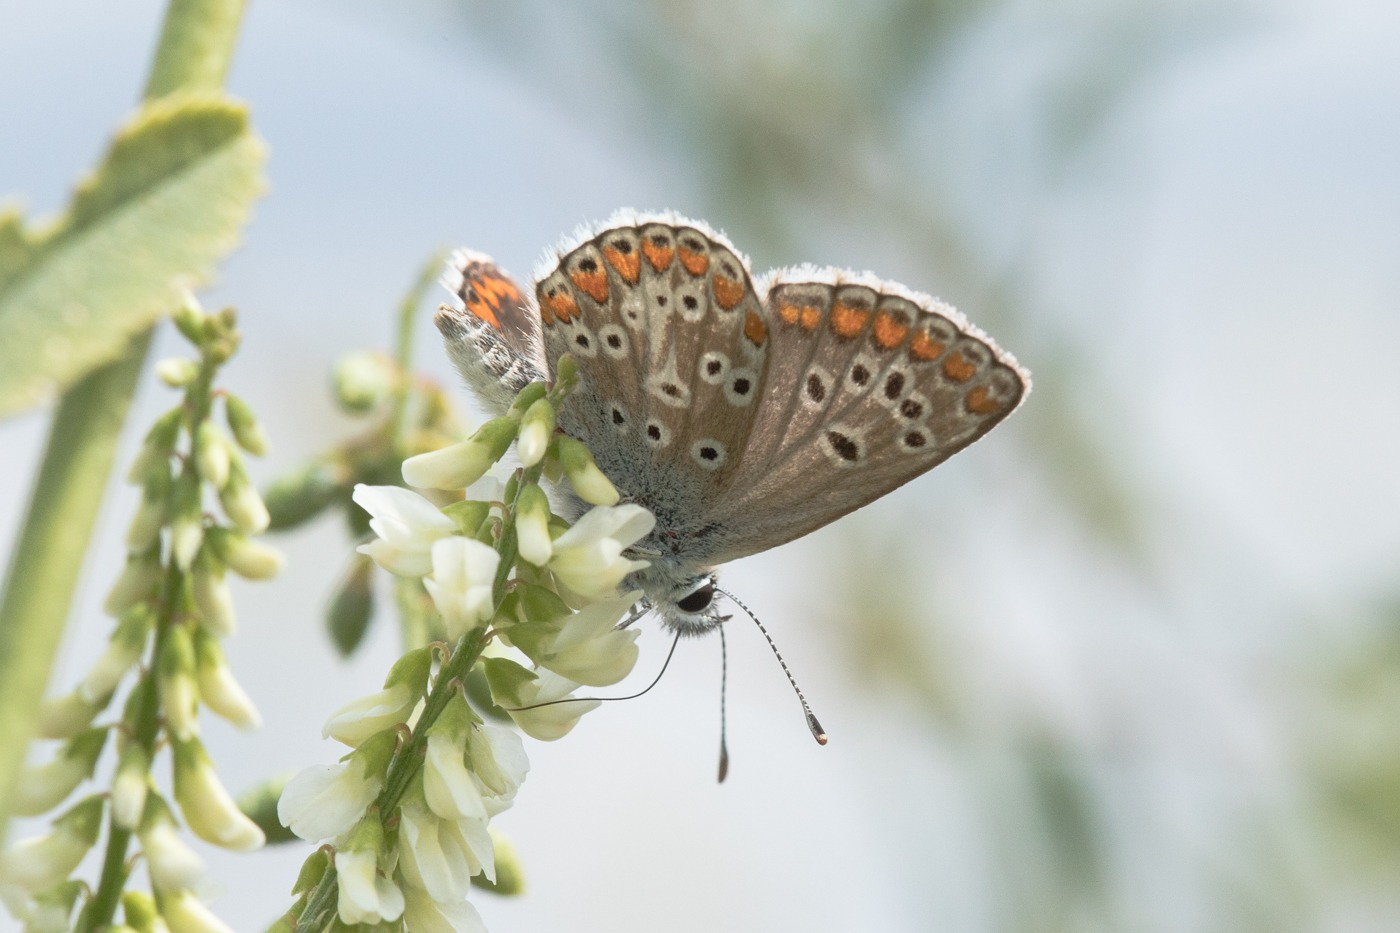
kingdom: Animalia
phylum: Arthropoda
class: Insecta
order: Lepidoptera
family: Lycaenidae
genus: Aricia
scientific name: Aricia agestis
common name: Rødplettet blåfugl
